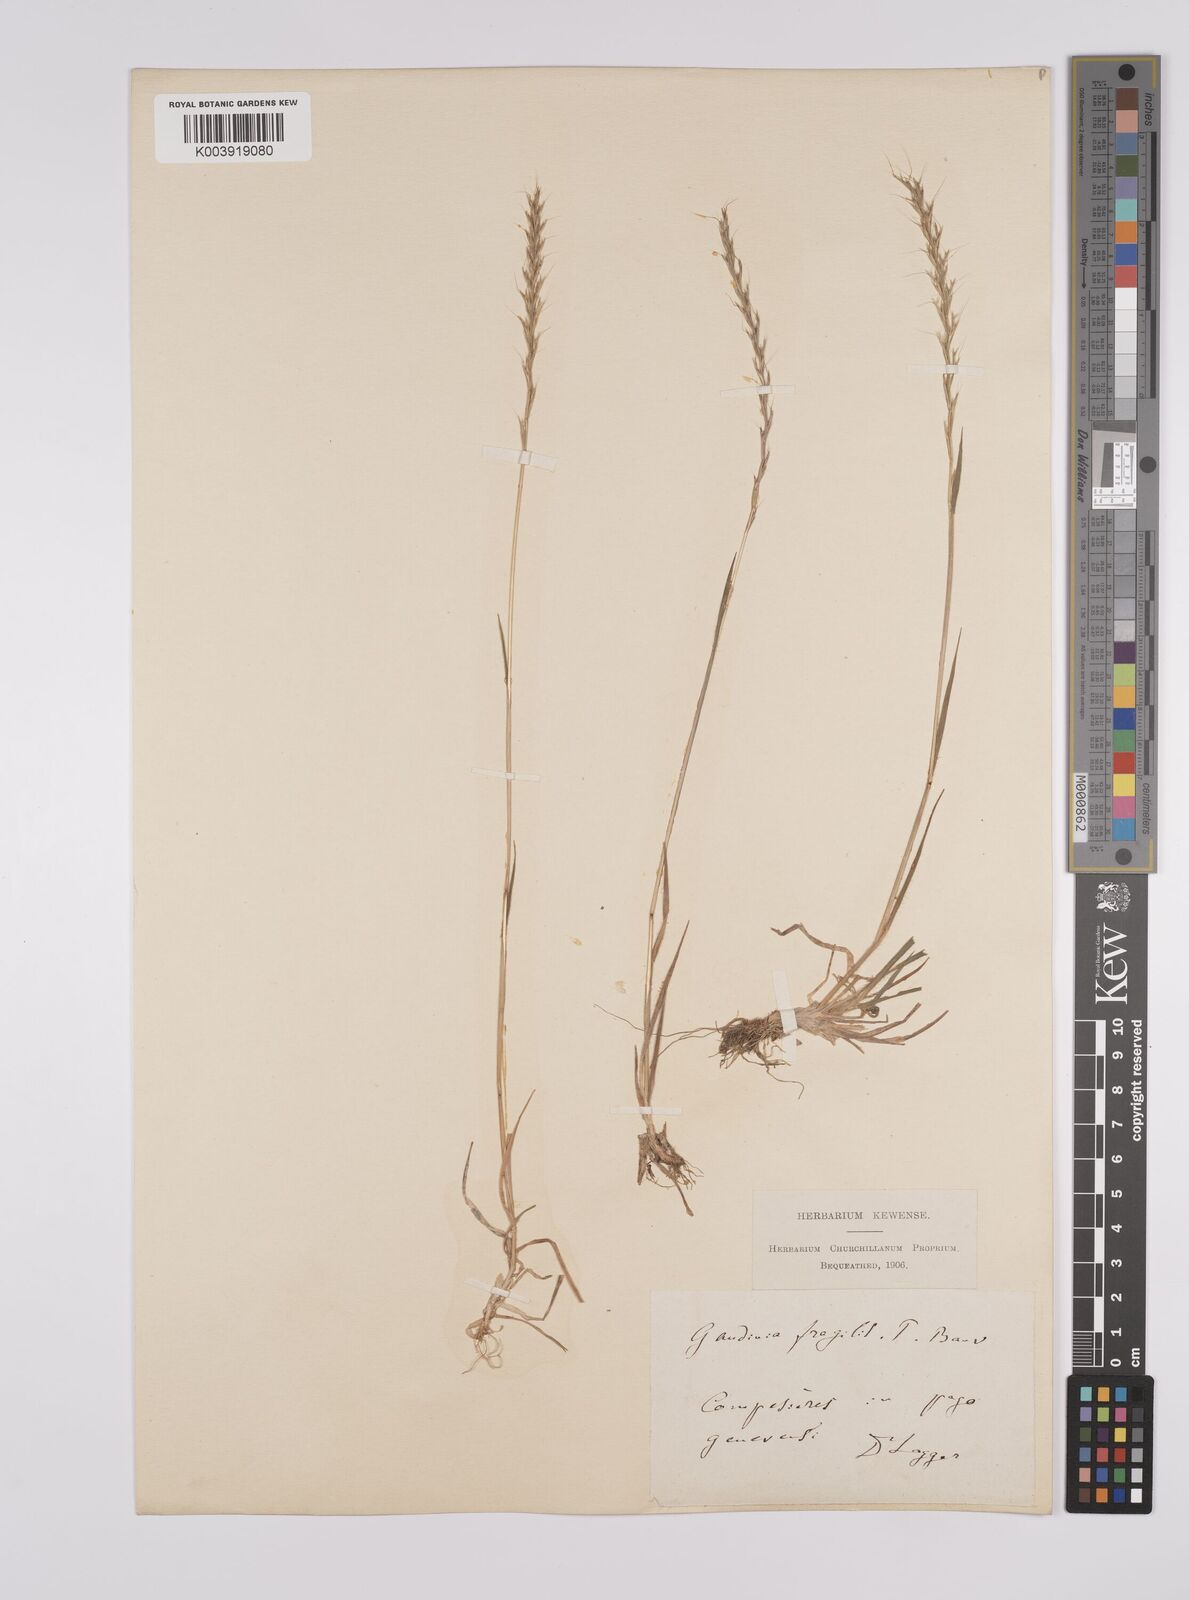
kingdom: Plantae
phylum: Tracheophyta
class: Liliopsida
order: Poales
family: Poaceae
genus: Gaudinia
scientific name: Gaudinia fragilis
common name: French oat-grass
